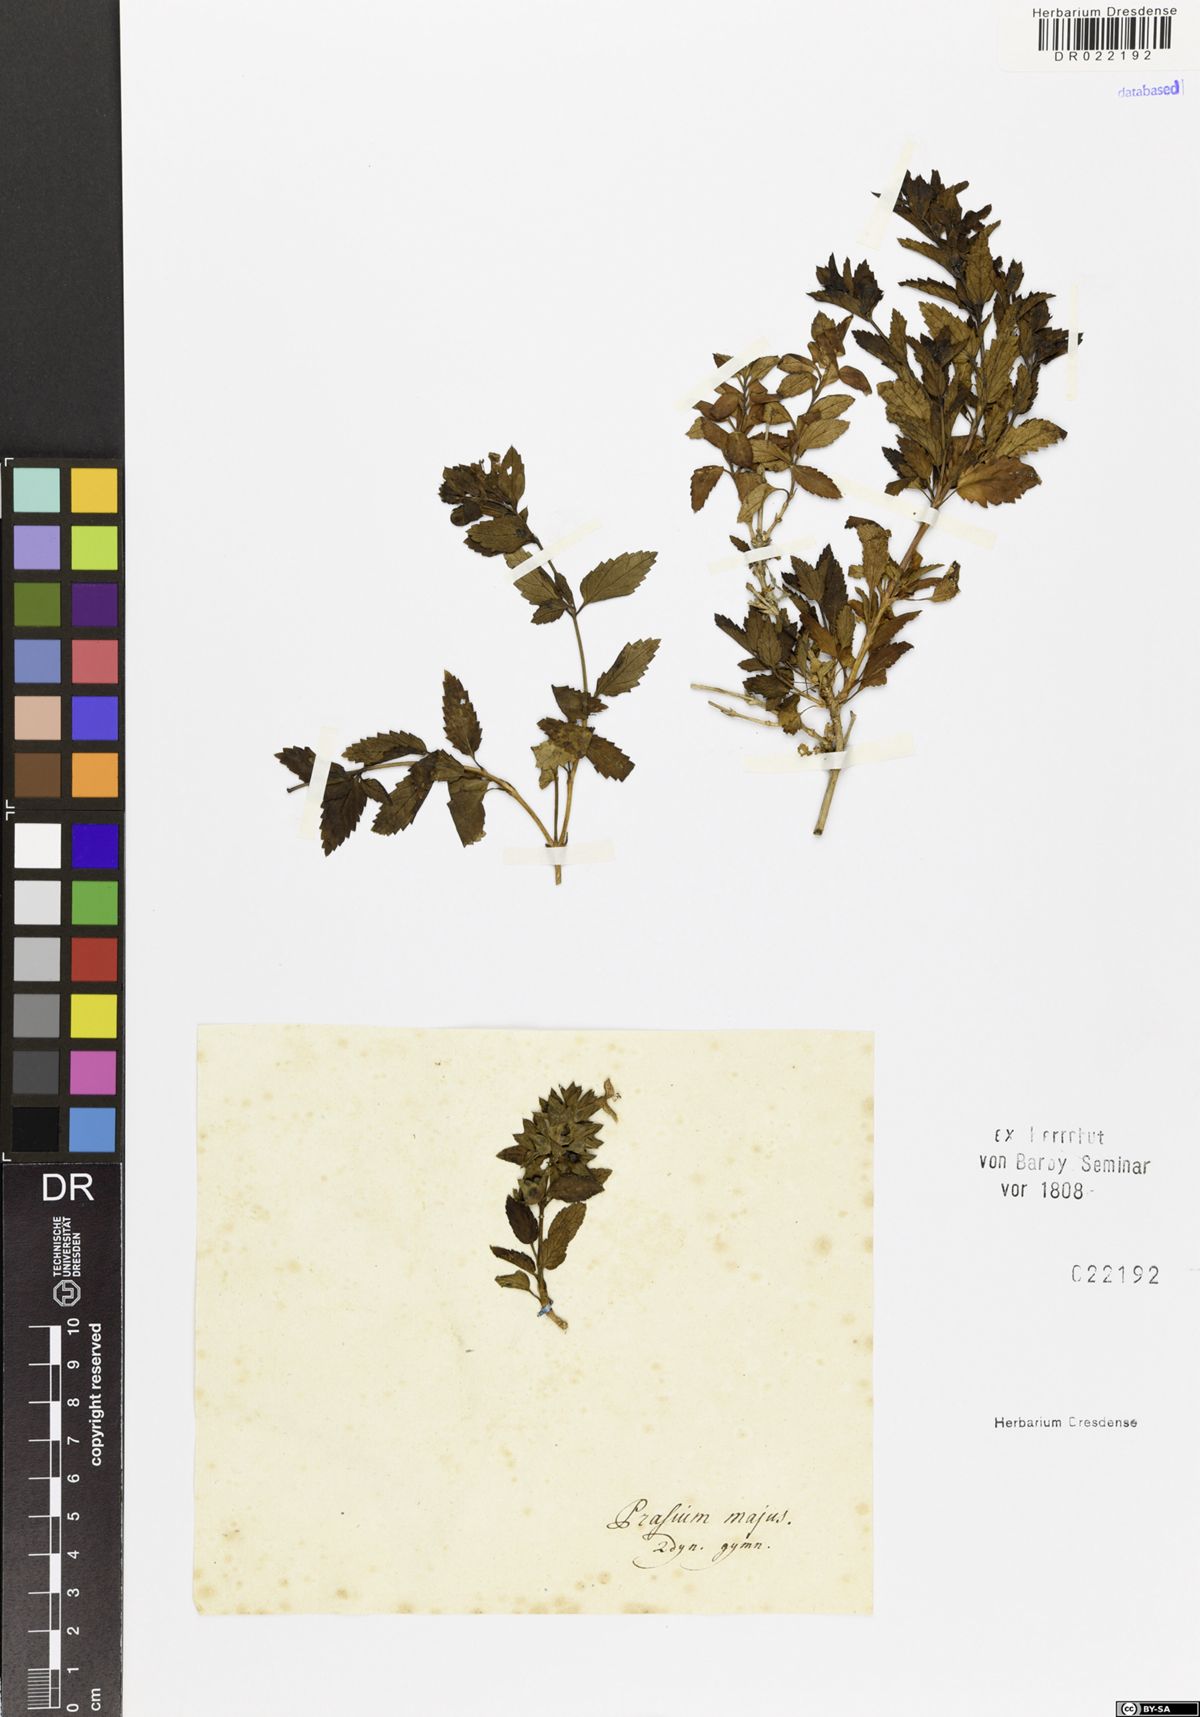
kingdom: Plantae
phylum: Tracheophyta
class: Magnoliopsida
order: Lamiales
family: Lamiaceae
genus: Prasium
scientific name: Prasium majus
